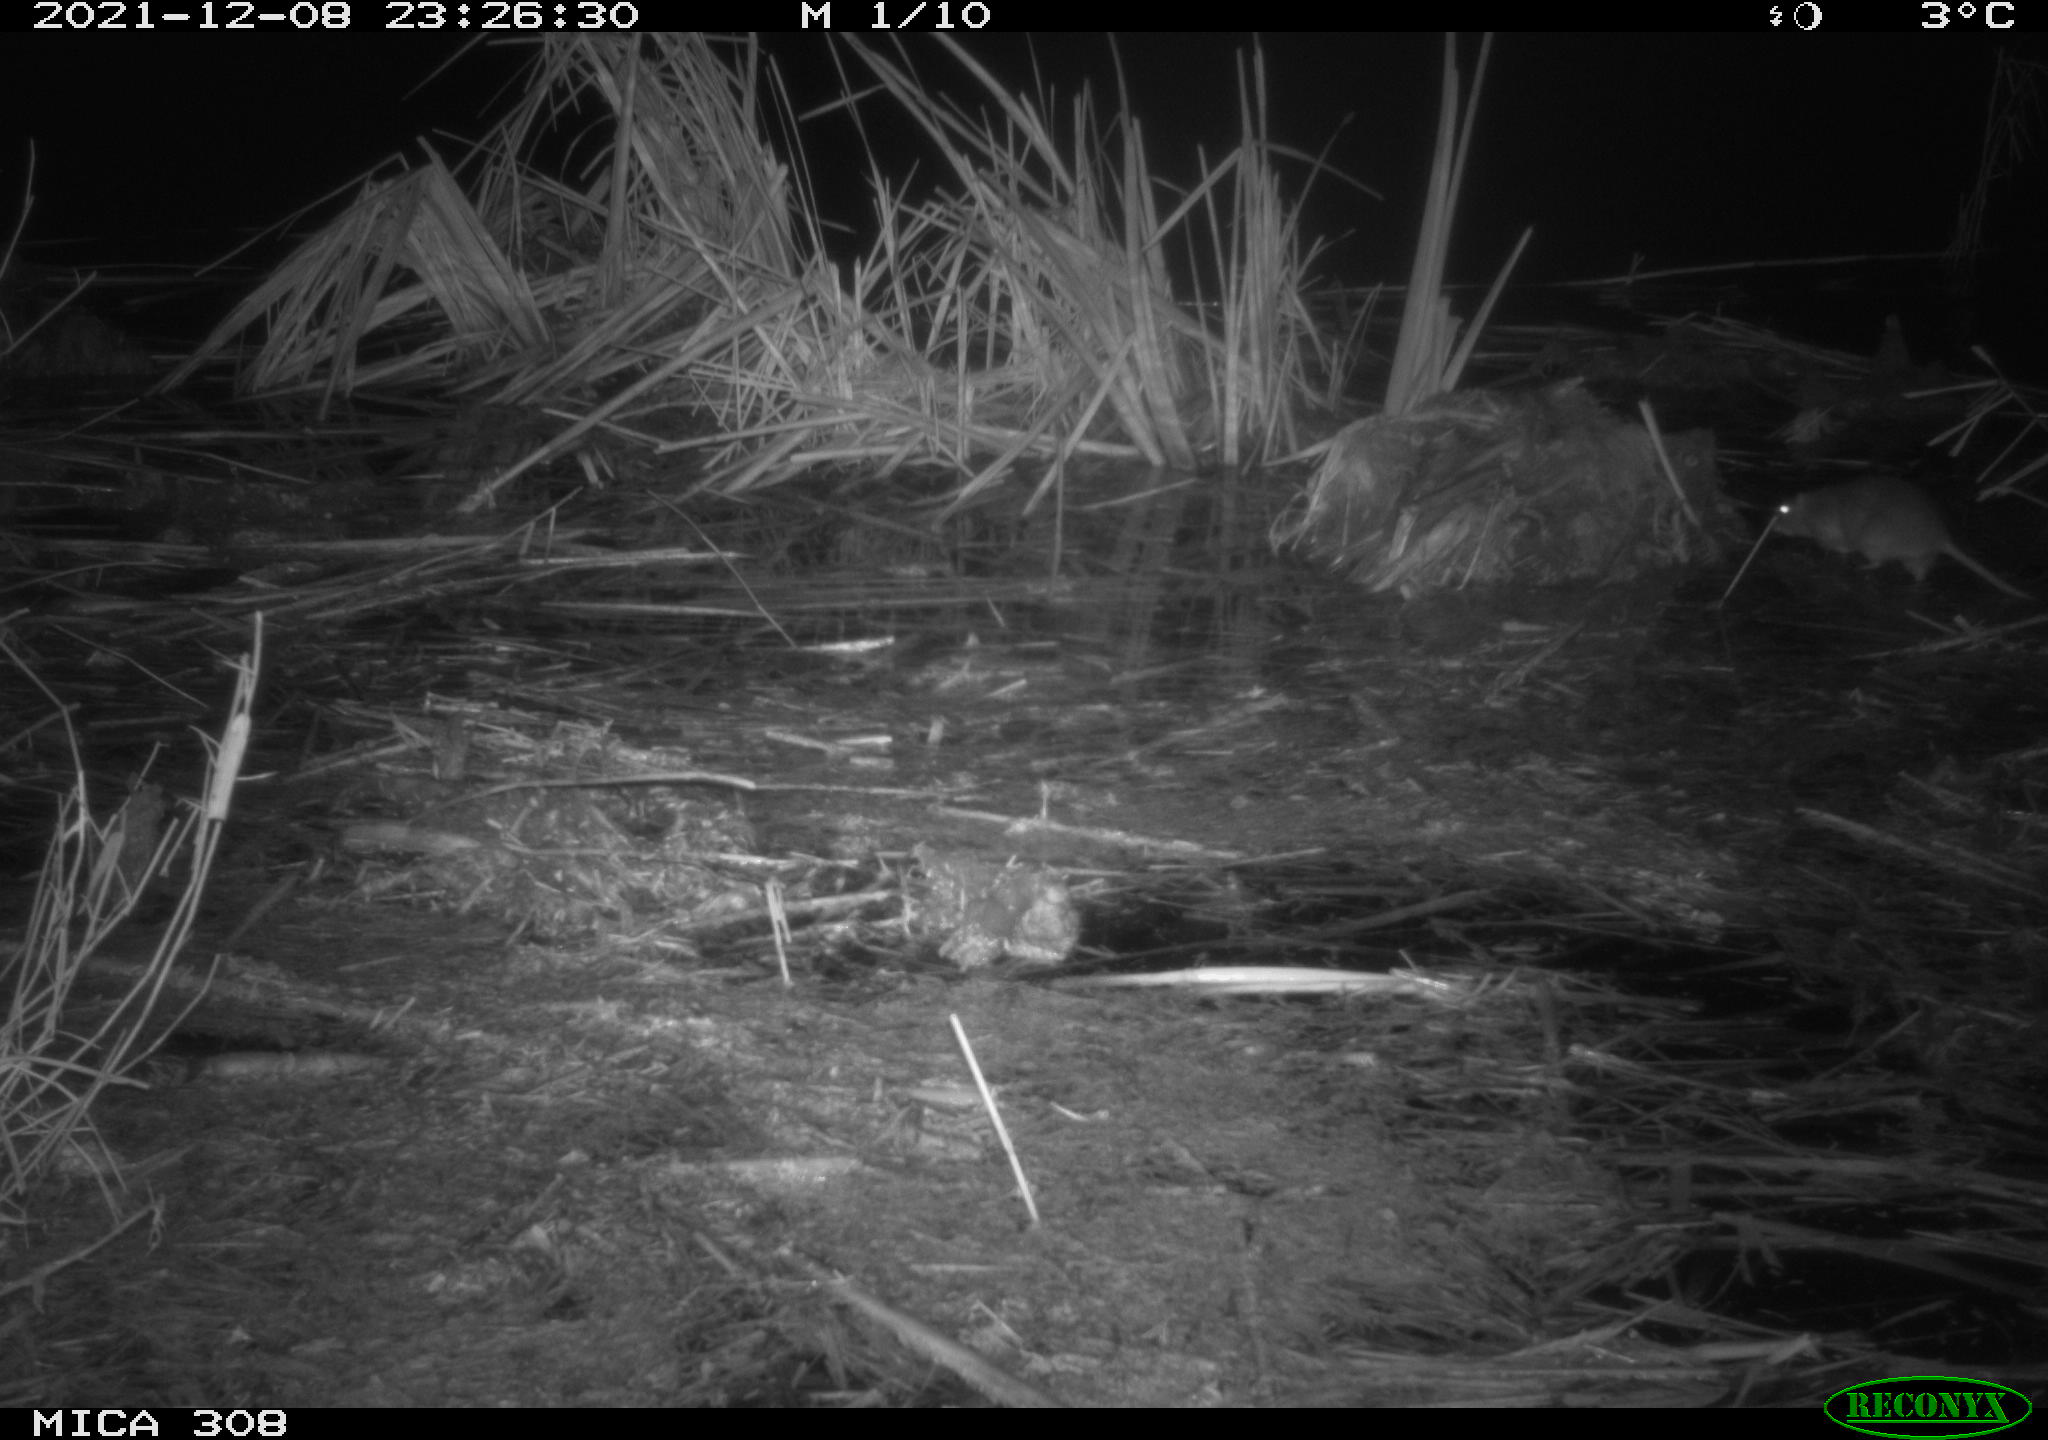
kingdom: Animalia
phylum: Chordata
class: Mammalia
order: Rodentia
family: Muridae
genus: Rattus
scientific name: Rattus norvegicus
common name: Brown rat
